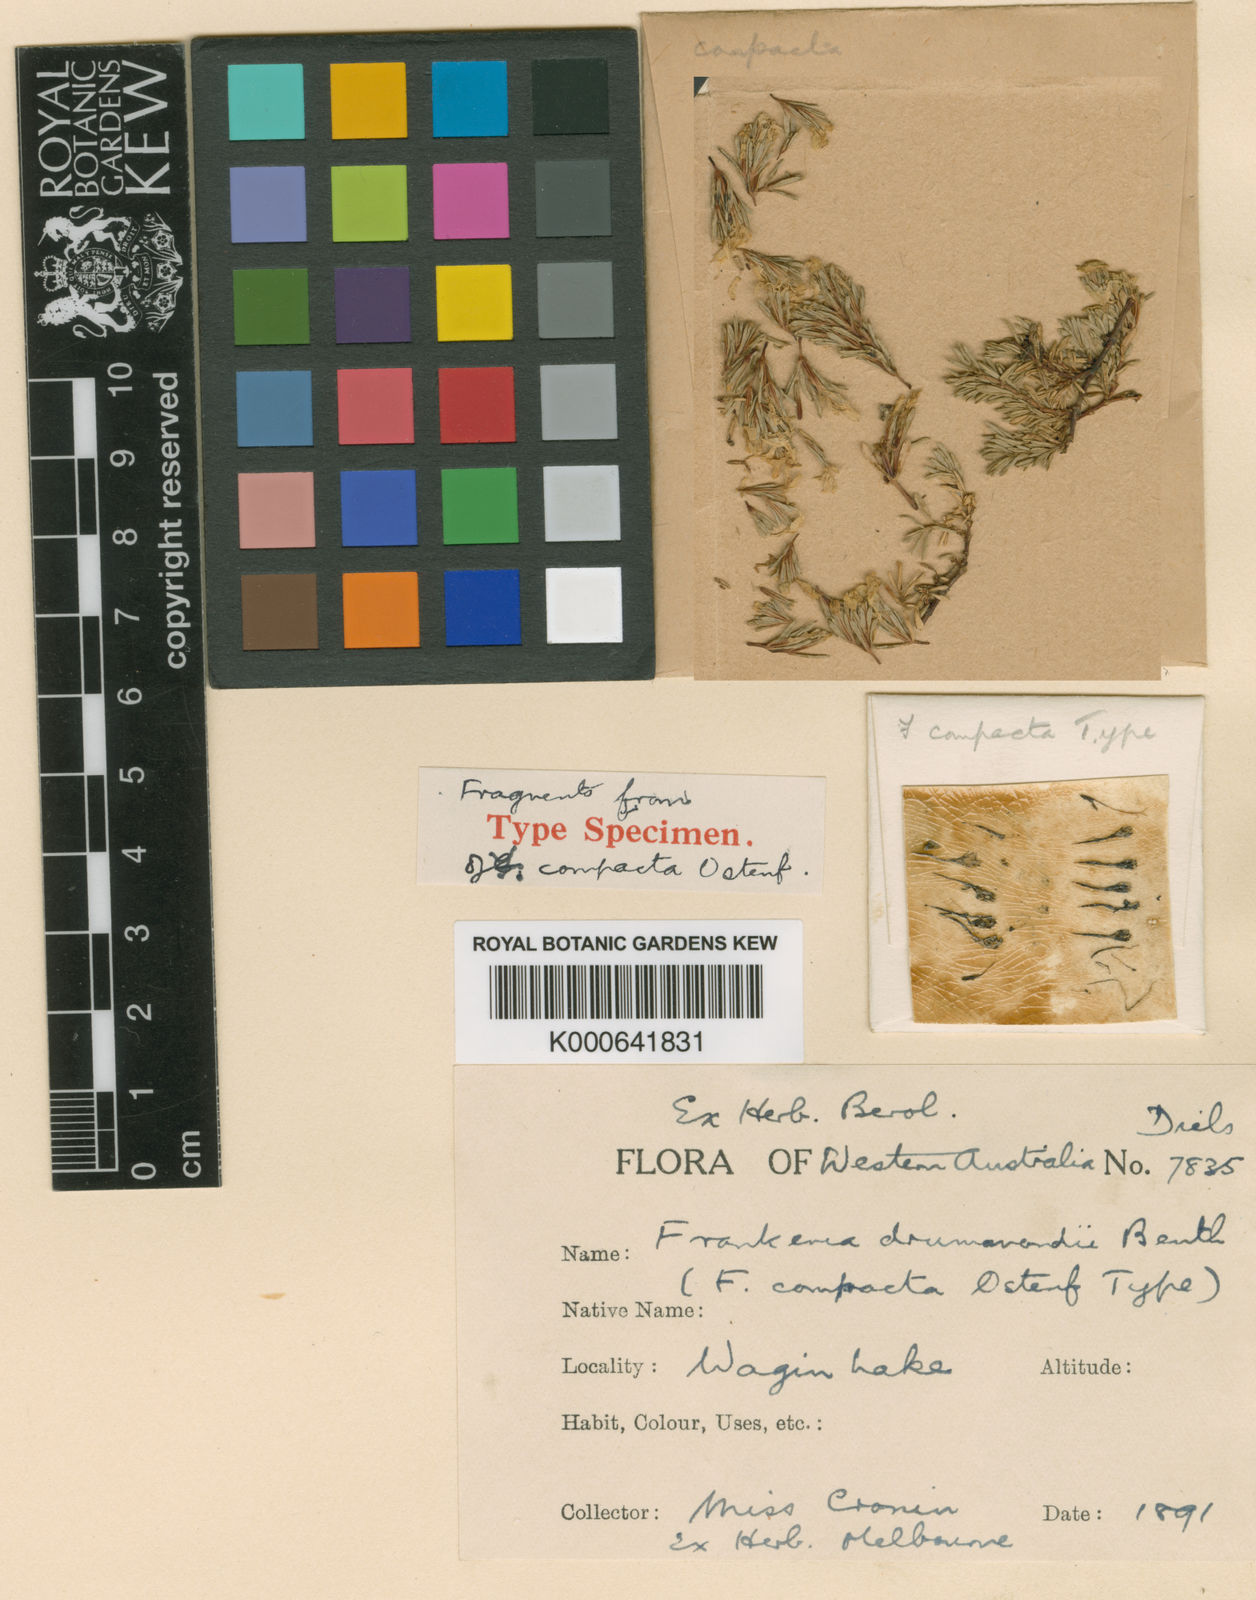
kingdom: Plantae
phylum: Tracheophyta
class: Magnoliopsida
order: Caryophyllales
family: Frankeniaceae
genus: Frankenia
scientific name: Frankenia drummondii
